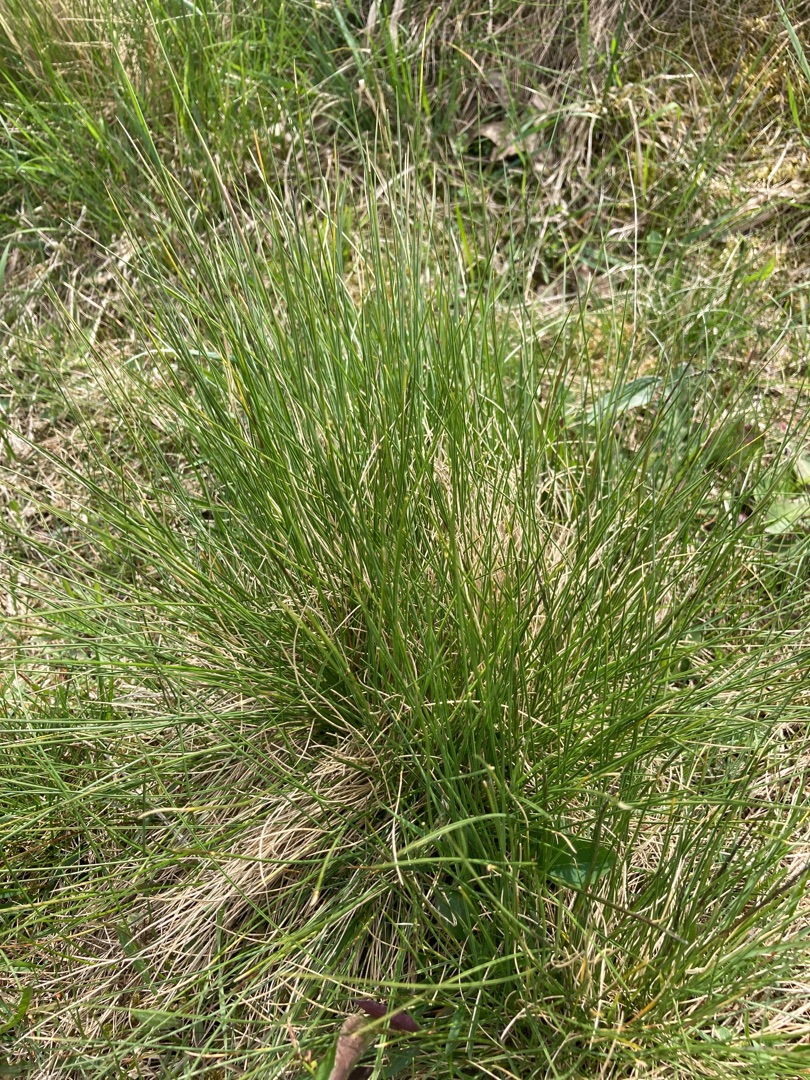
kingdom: Plantae
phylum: Tracheophyta
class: Liliopsida
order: Poales
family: Poaceae
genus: Nardus
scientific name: Nardus stricta
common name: Katteskæg
